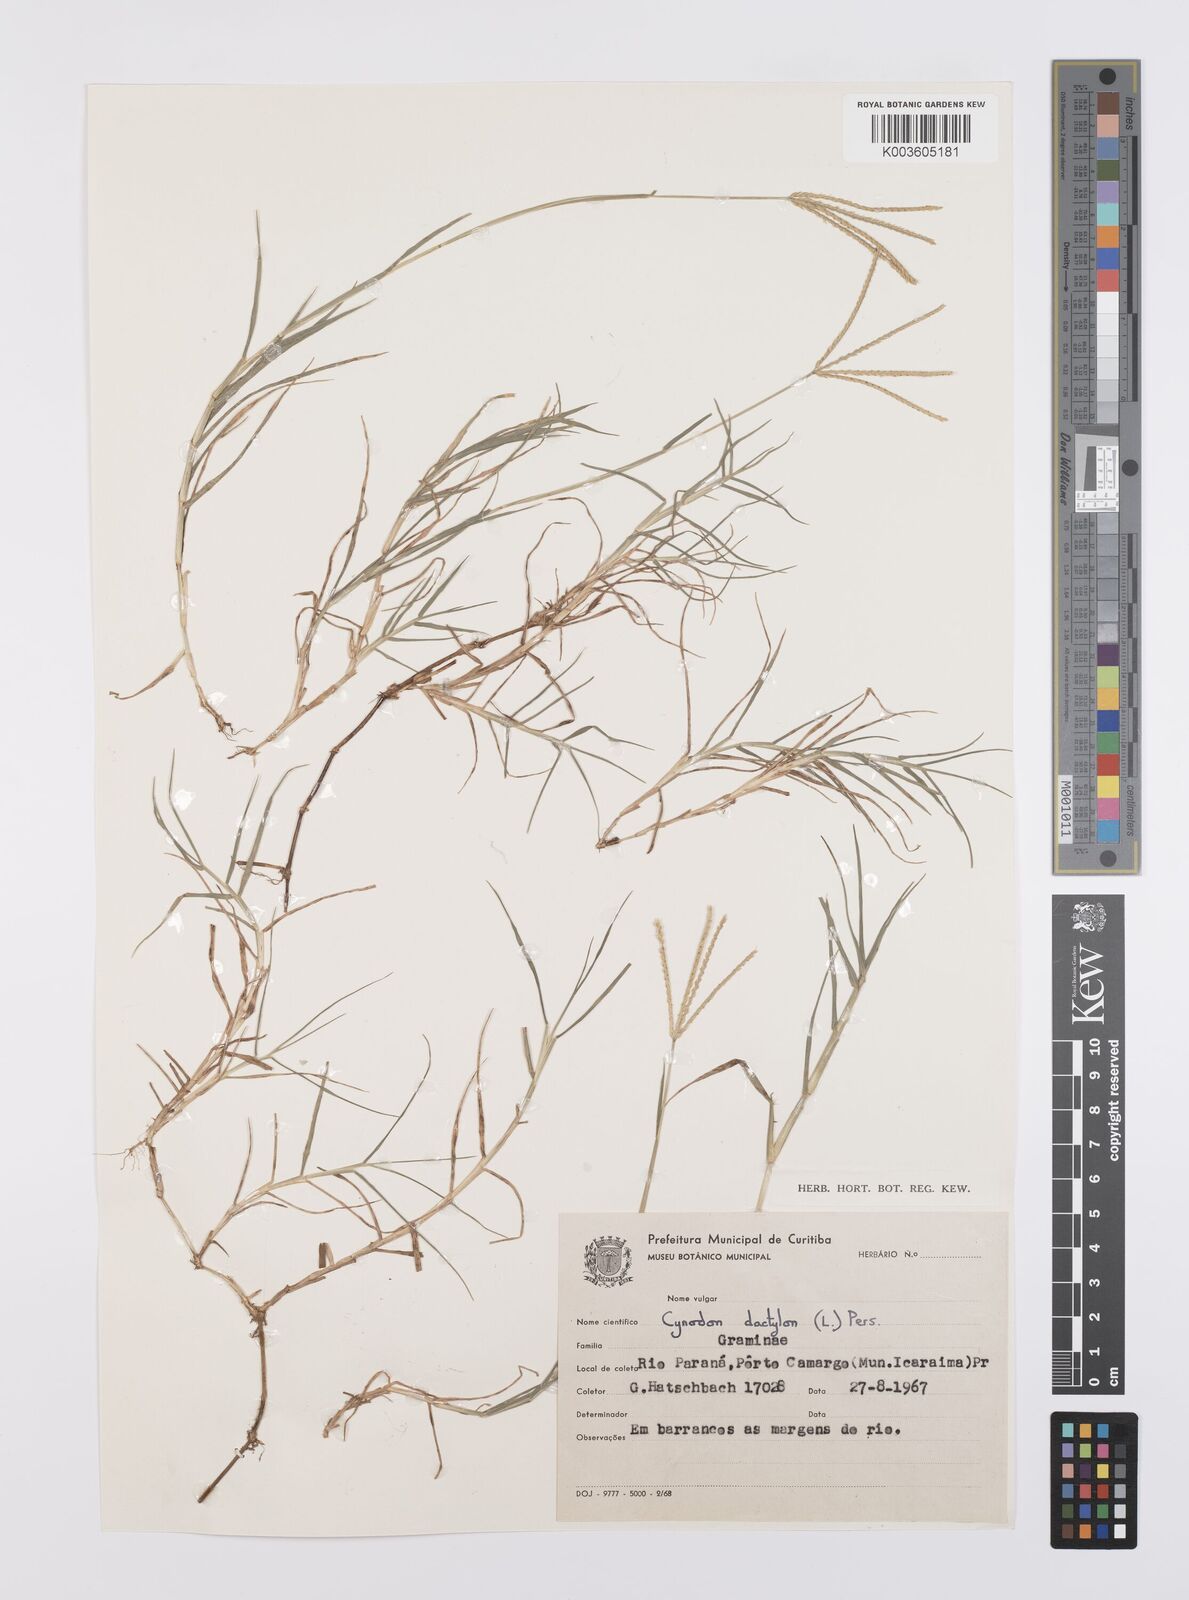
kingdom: Plantae
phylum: Tracheophyta
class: Liliopsida
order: Poales
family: Poaceae
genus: Cynodon
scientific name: Cynodon dactylon
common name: Bermuda grass
